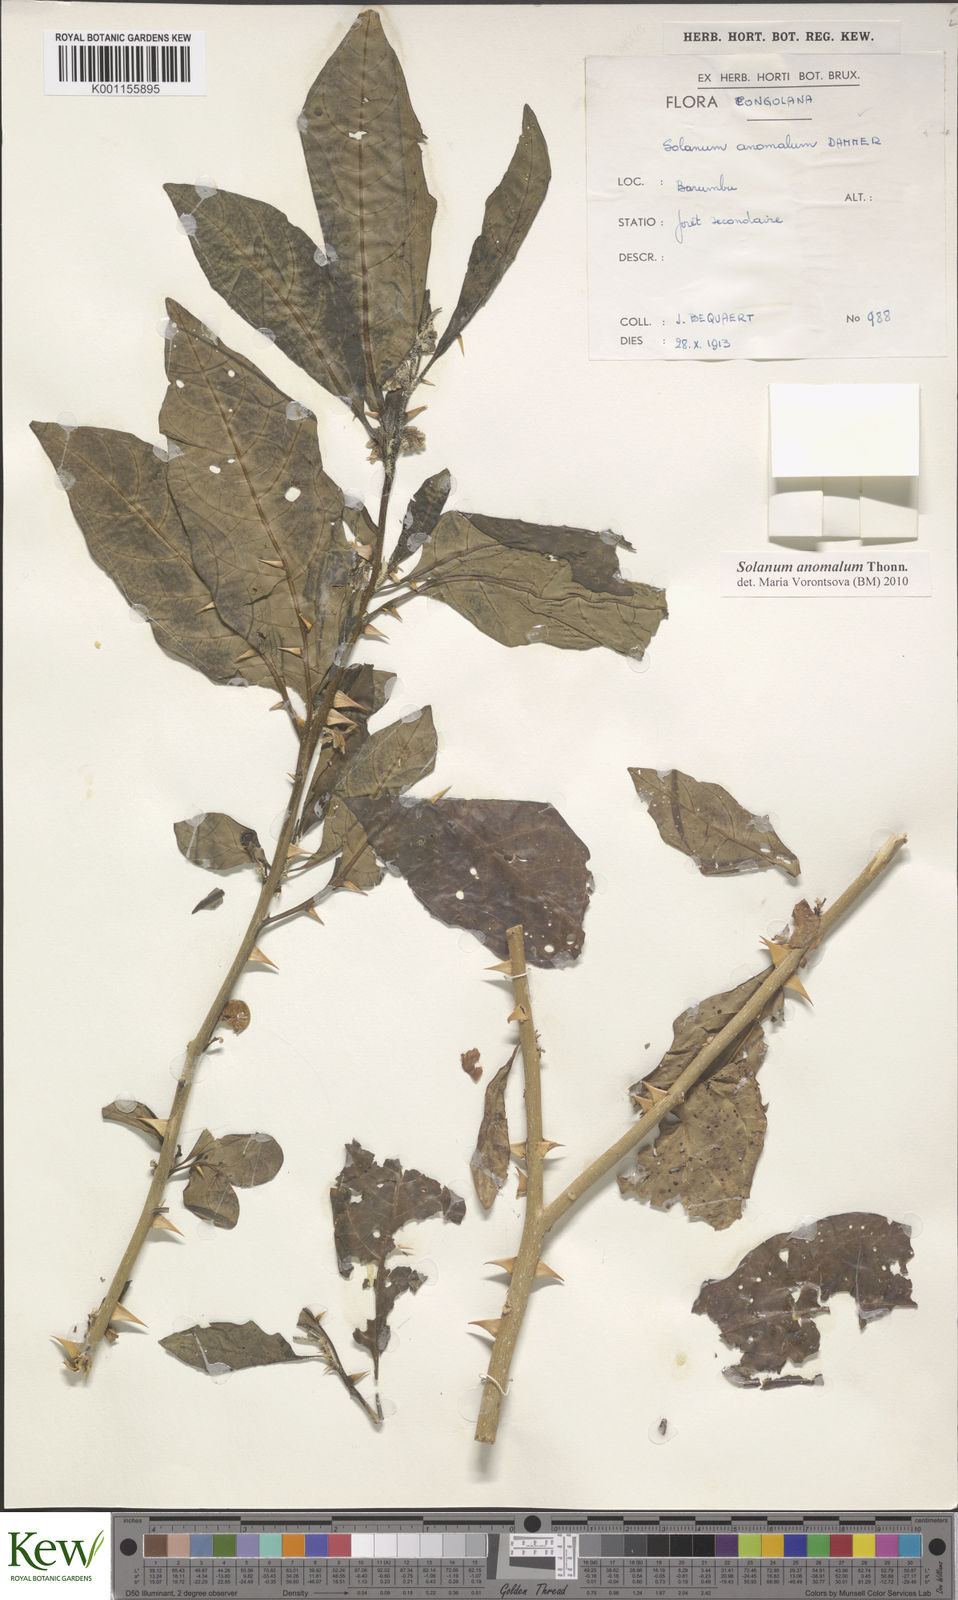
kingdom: Plantae
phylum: Tracheophyta
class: Magnoliopsida
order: Solanales
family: Solanaceae
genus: Solanum
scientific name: Solanum anomalum
